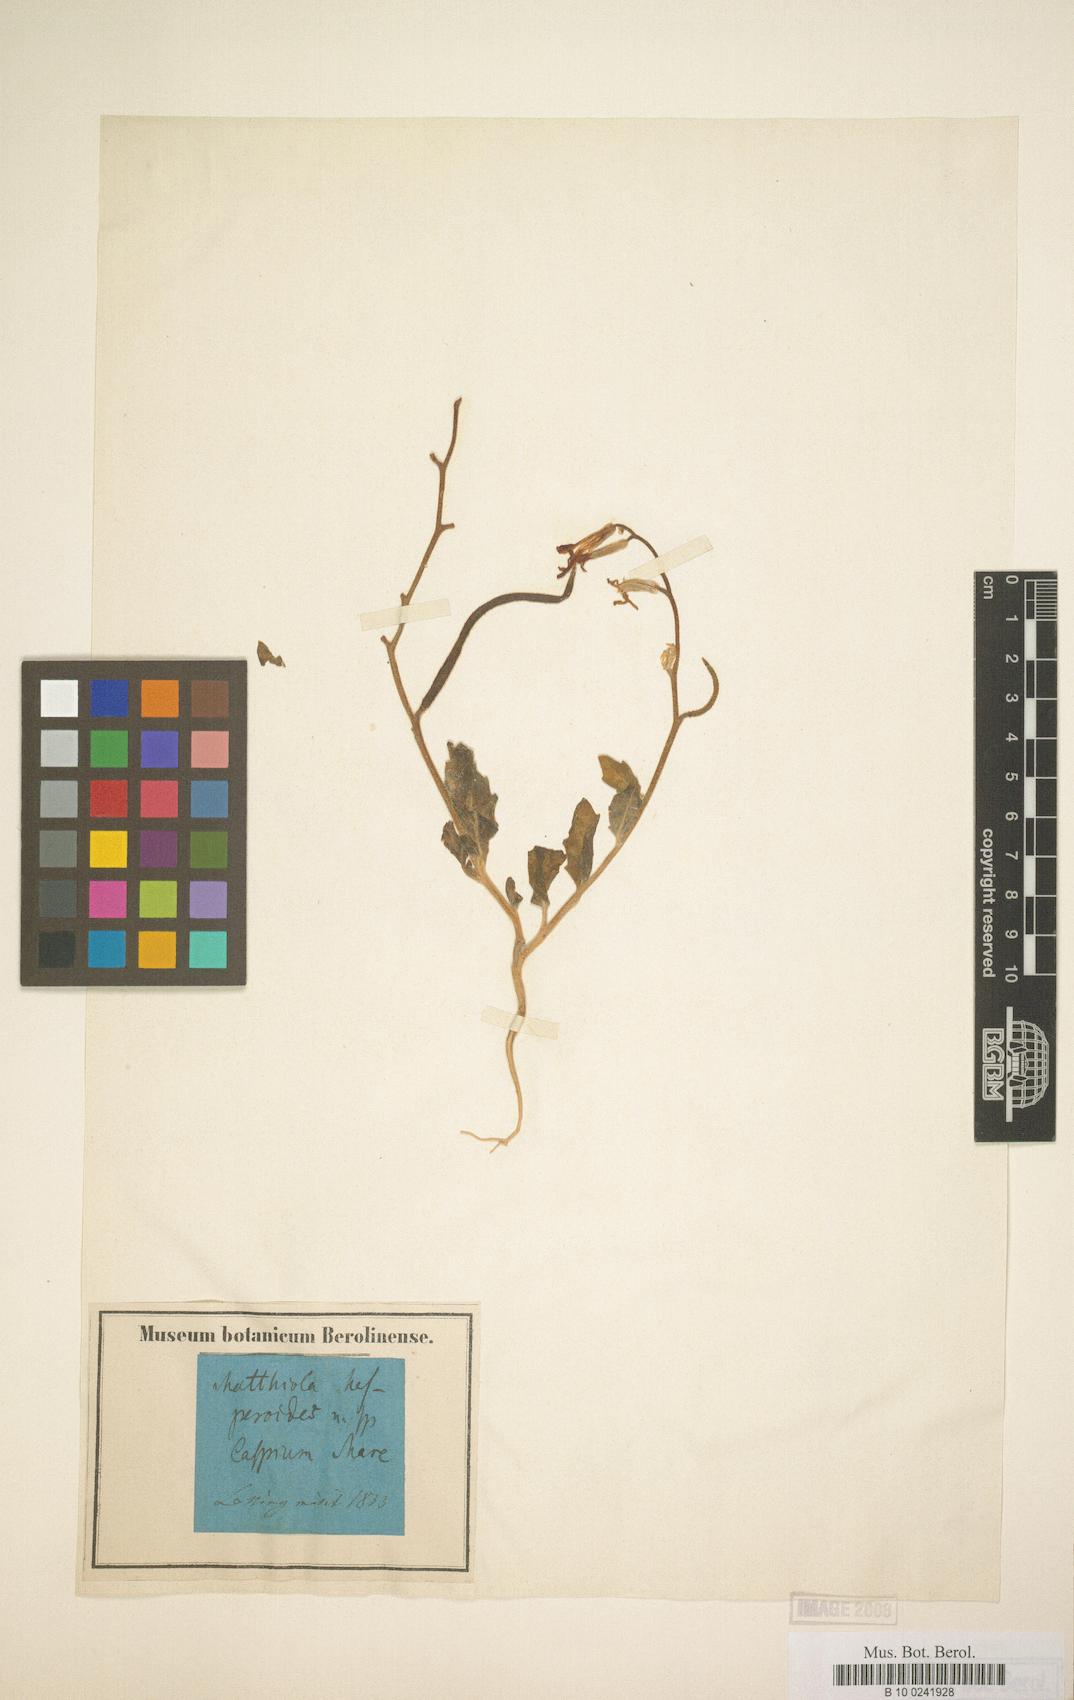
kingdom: Plantae
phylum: Tracheophyta
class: Magnoliopsida
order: Brassicales
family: Brassicaceae
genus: Matthiola
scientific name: Matthiola chenopodiifolia
